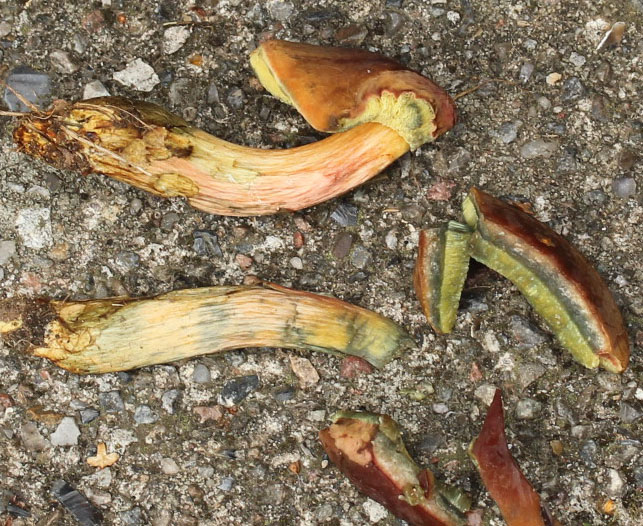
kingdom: Fungi
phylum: Basidiomycota
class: Agaricomycetes
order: Boletales
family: Boletaceae
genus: Hortiboletus
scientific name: Hortiboletus bubalinus
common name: aurora-rørhat
